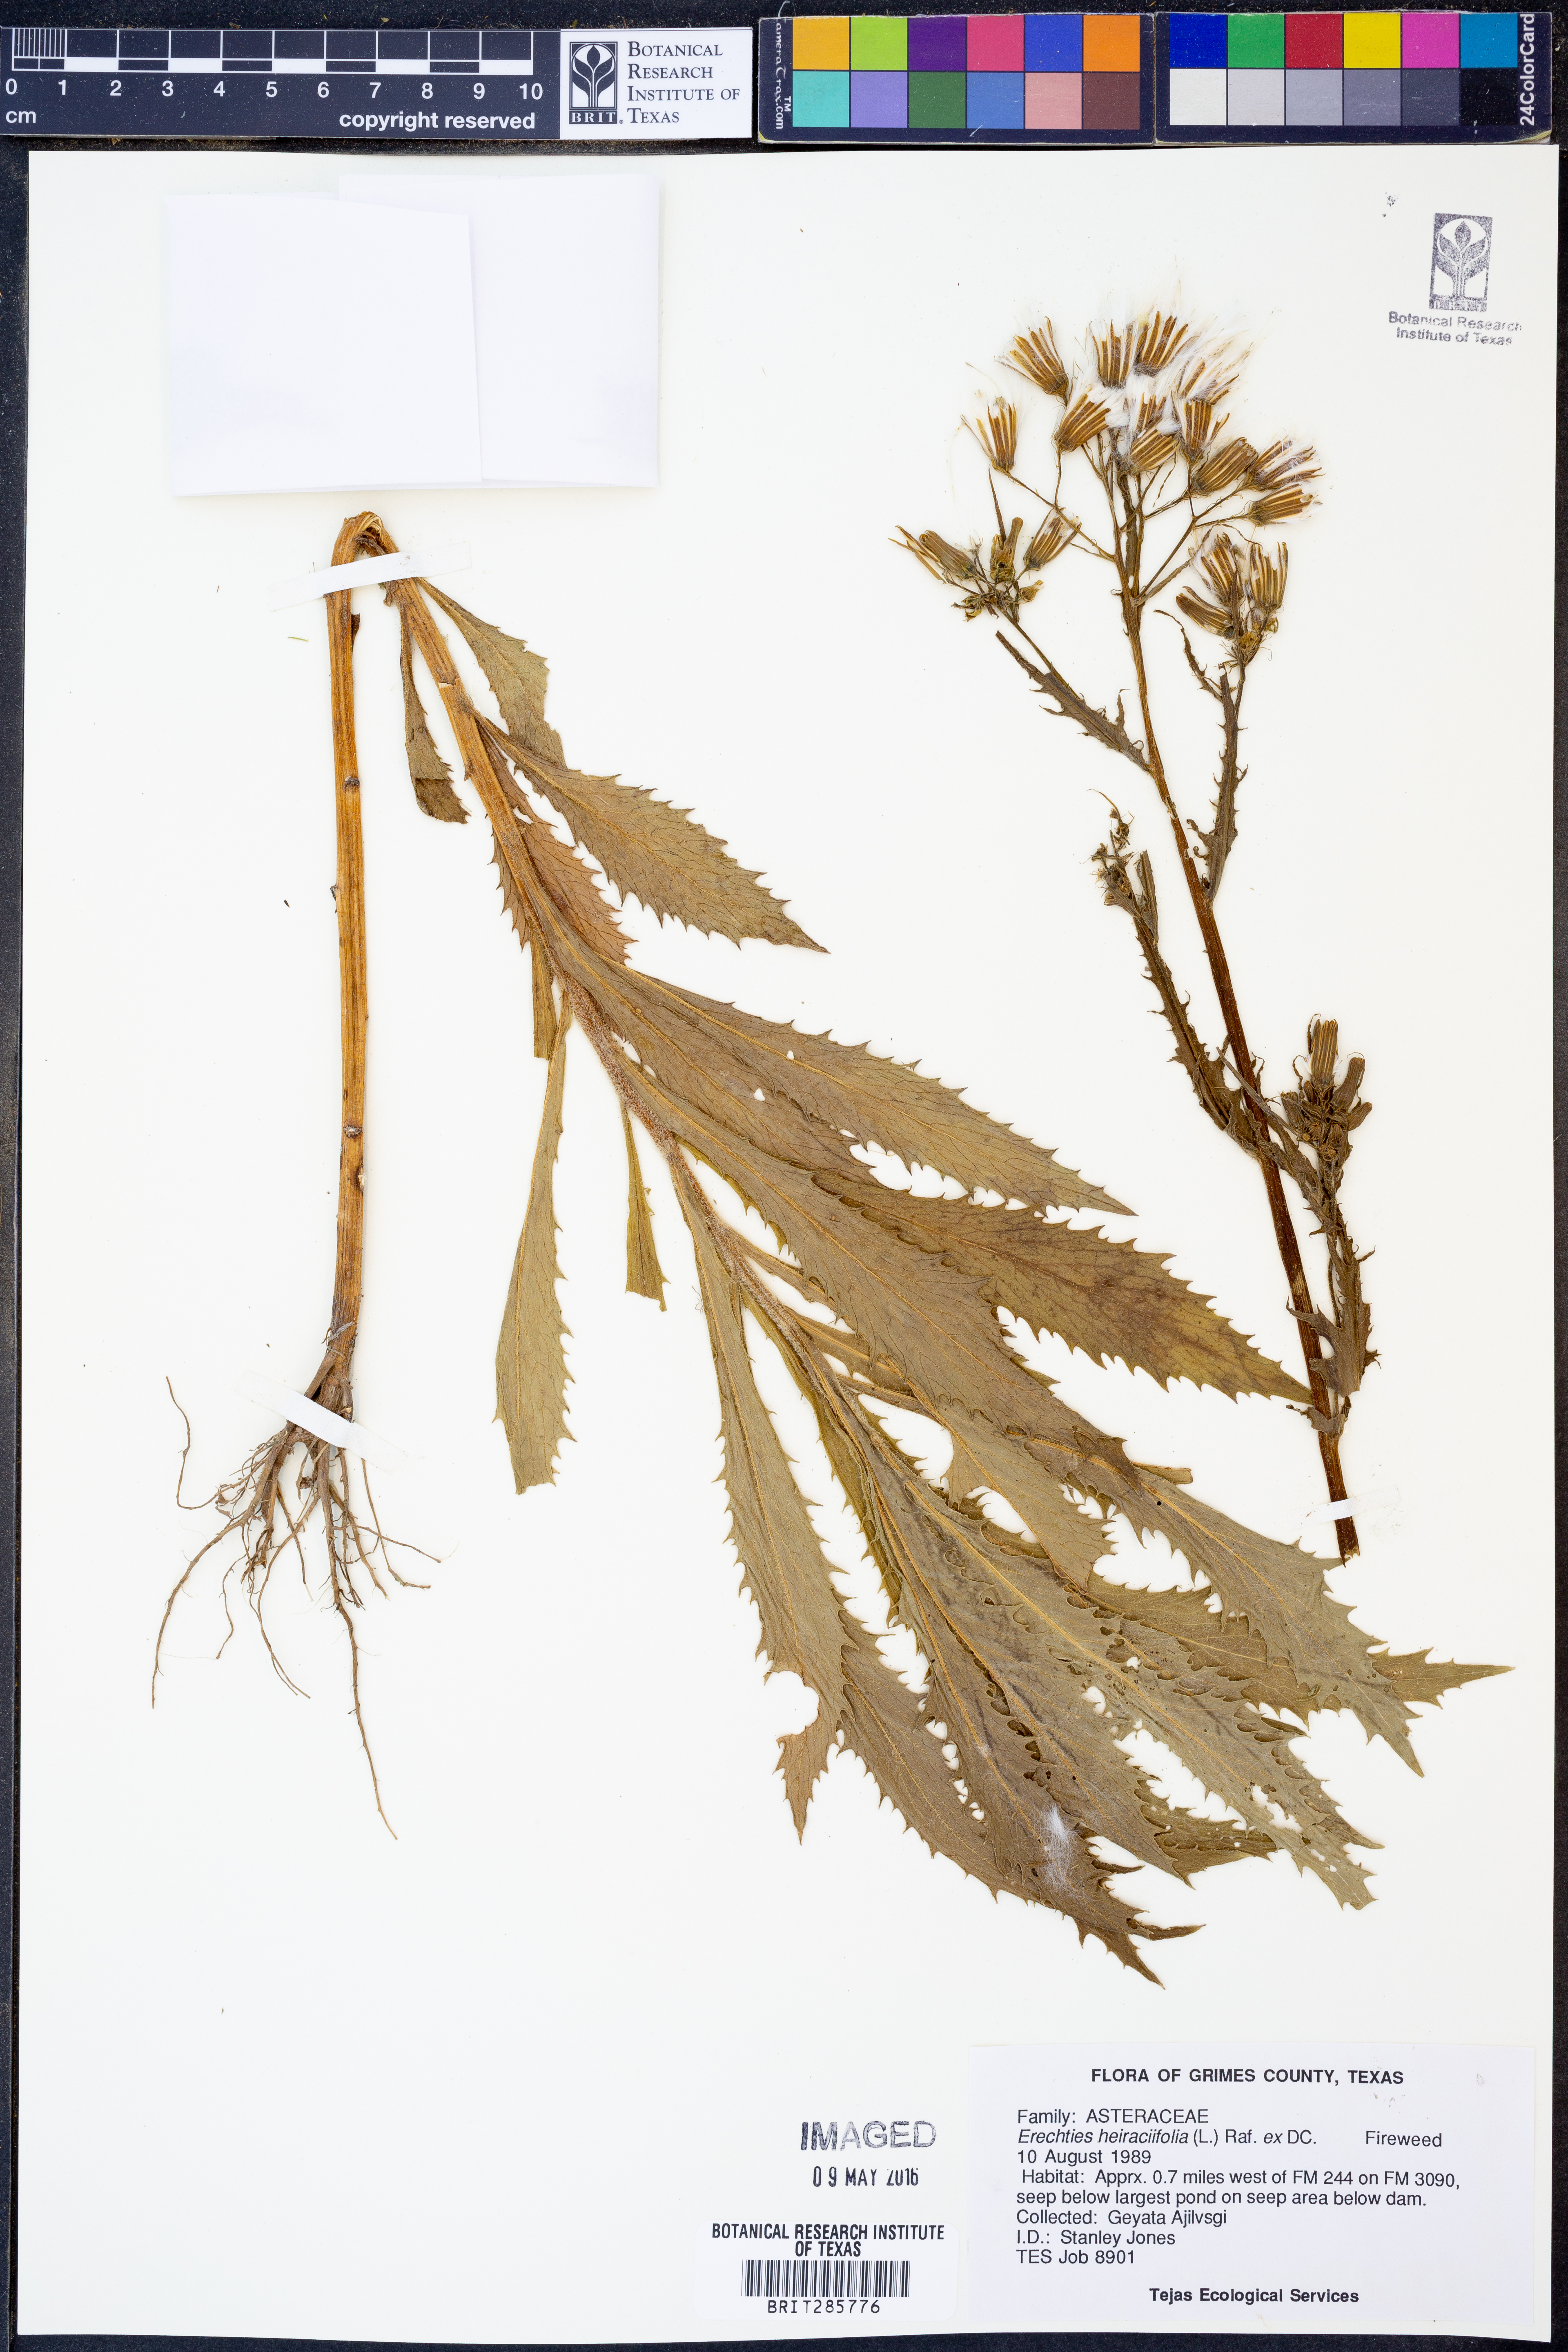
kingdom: Plantae
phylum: Tracheophyta
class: Magnoliopsida
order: Asterales
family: Asteraceae
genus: Erechtites
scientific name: Erechtites hieraciifolius
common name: American burnweed
